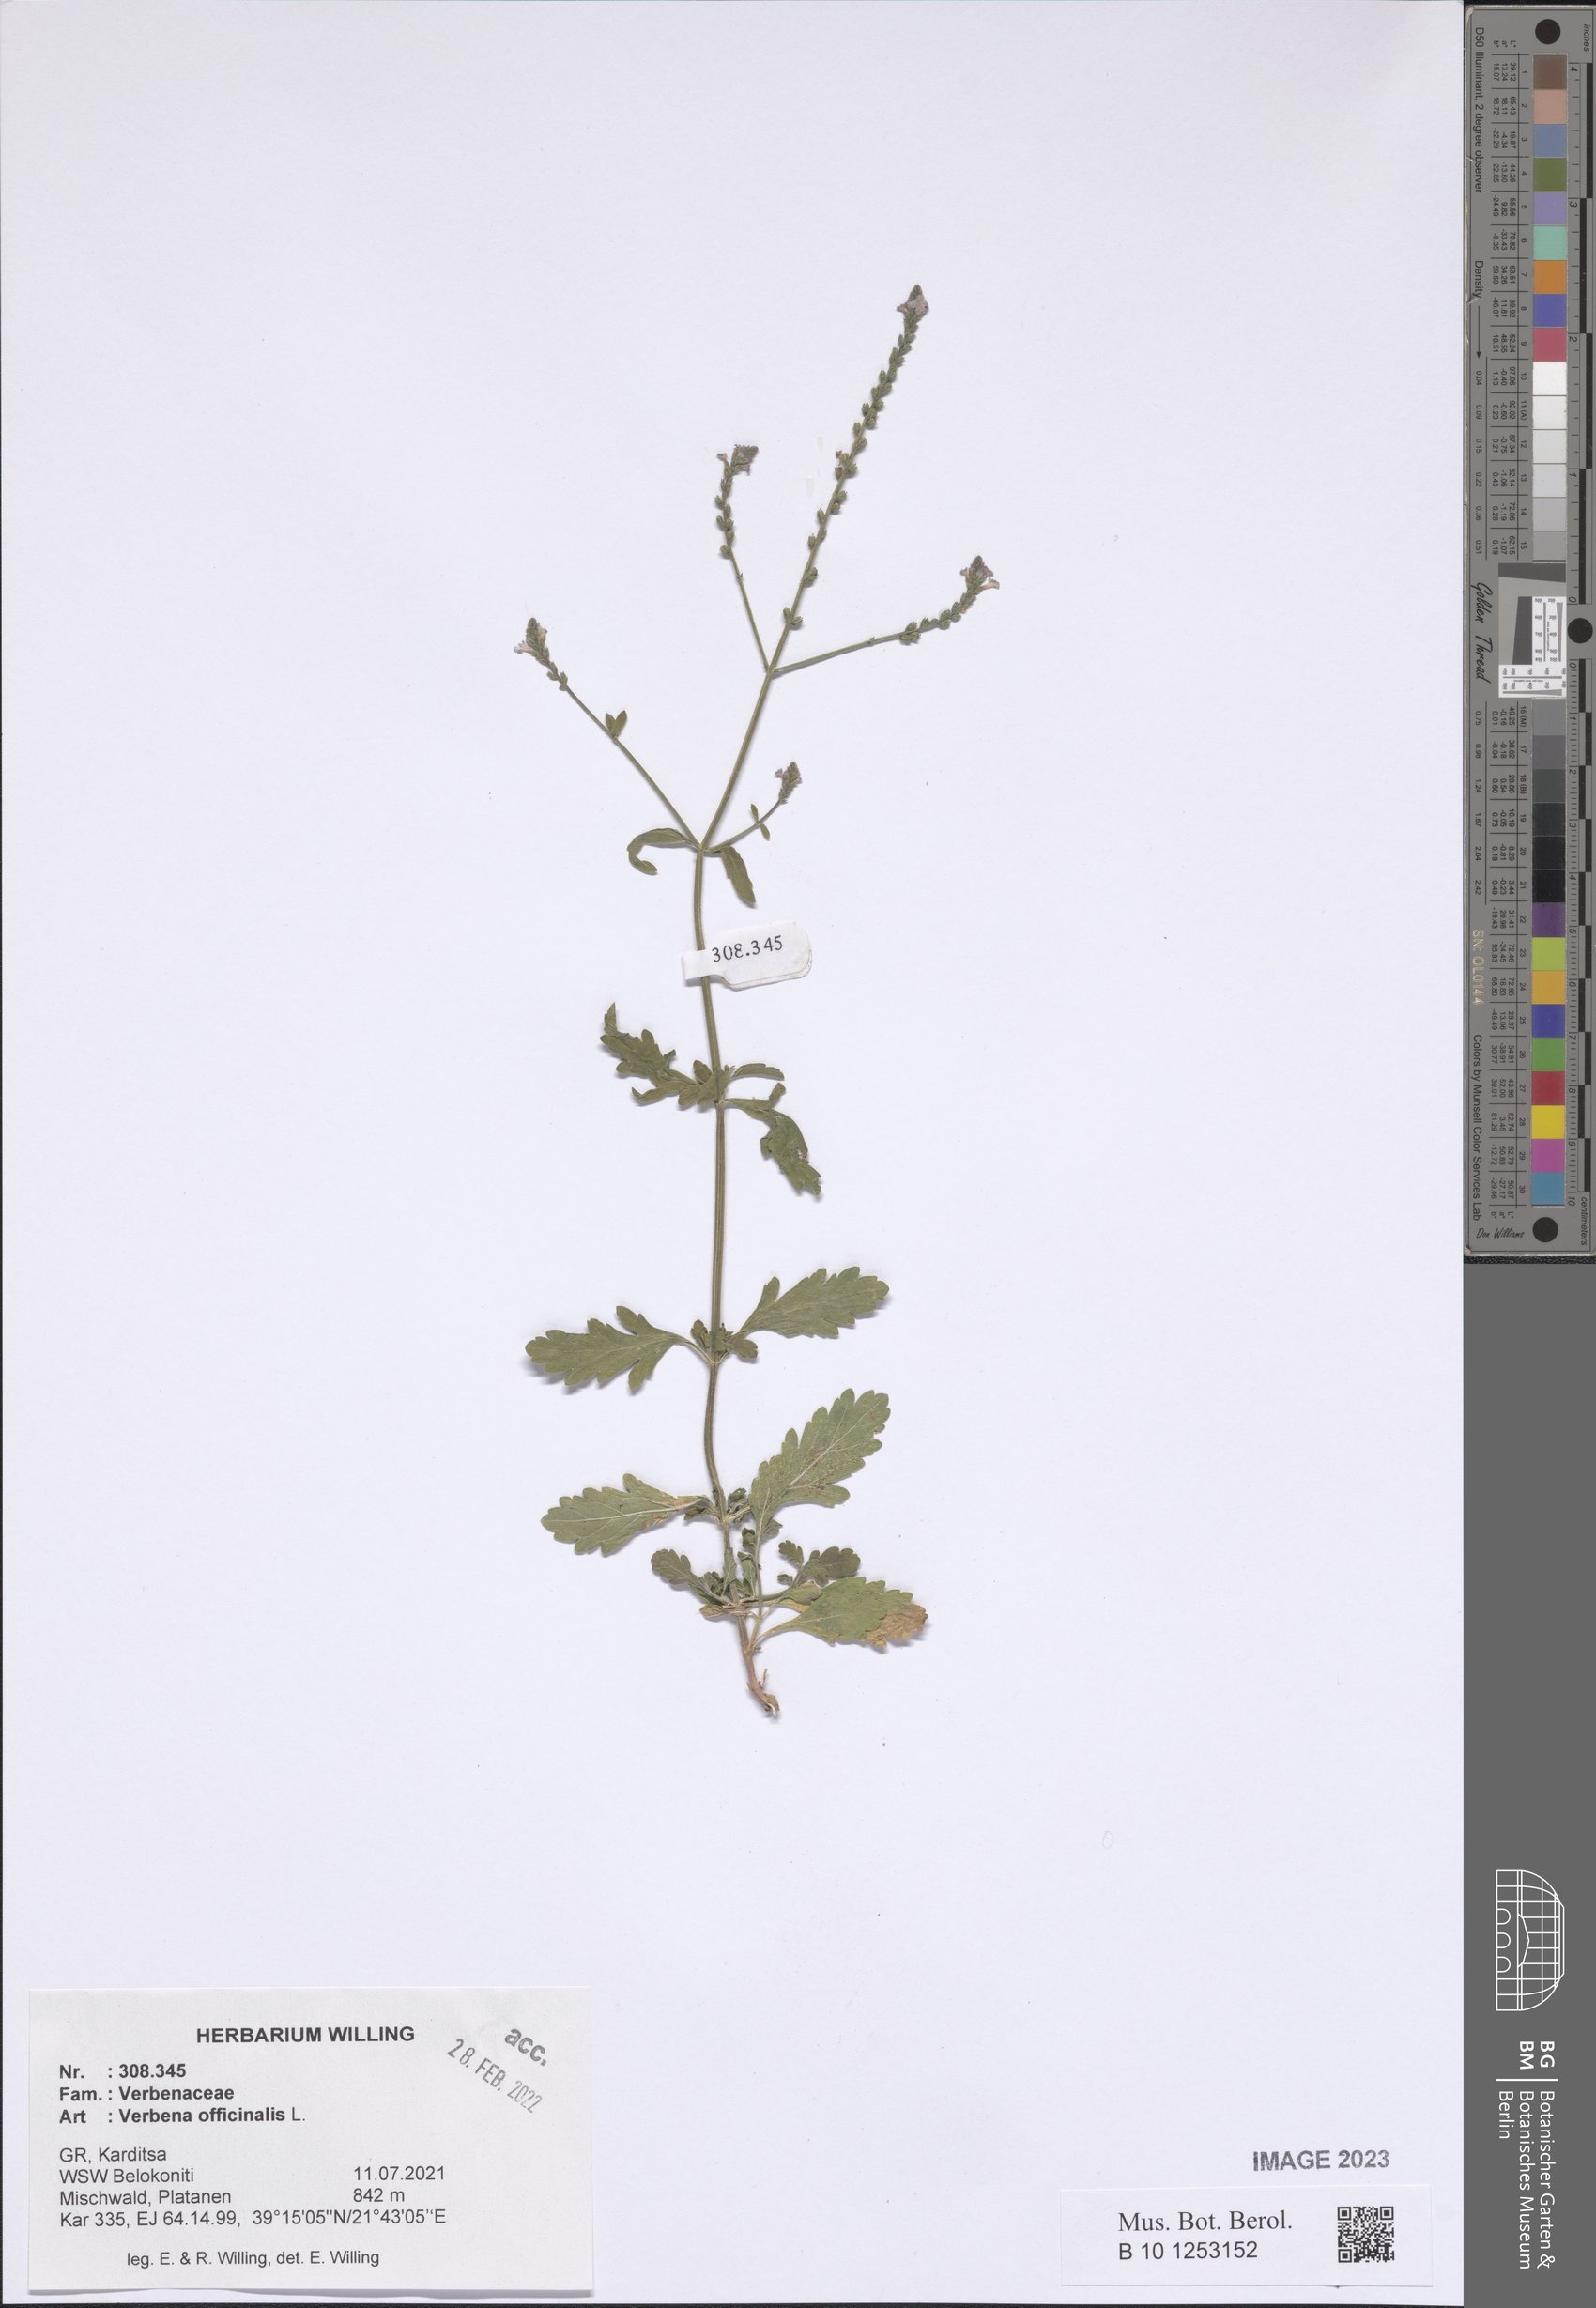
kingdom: Plantae
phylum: Tracheophyta
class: Magnoliopsida
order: Lamiales
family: Verbenaceae
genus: Verbena
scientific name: Verbena officinalis
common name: Vervain
